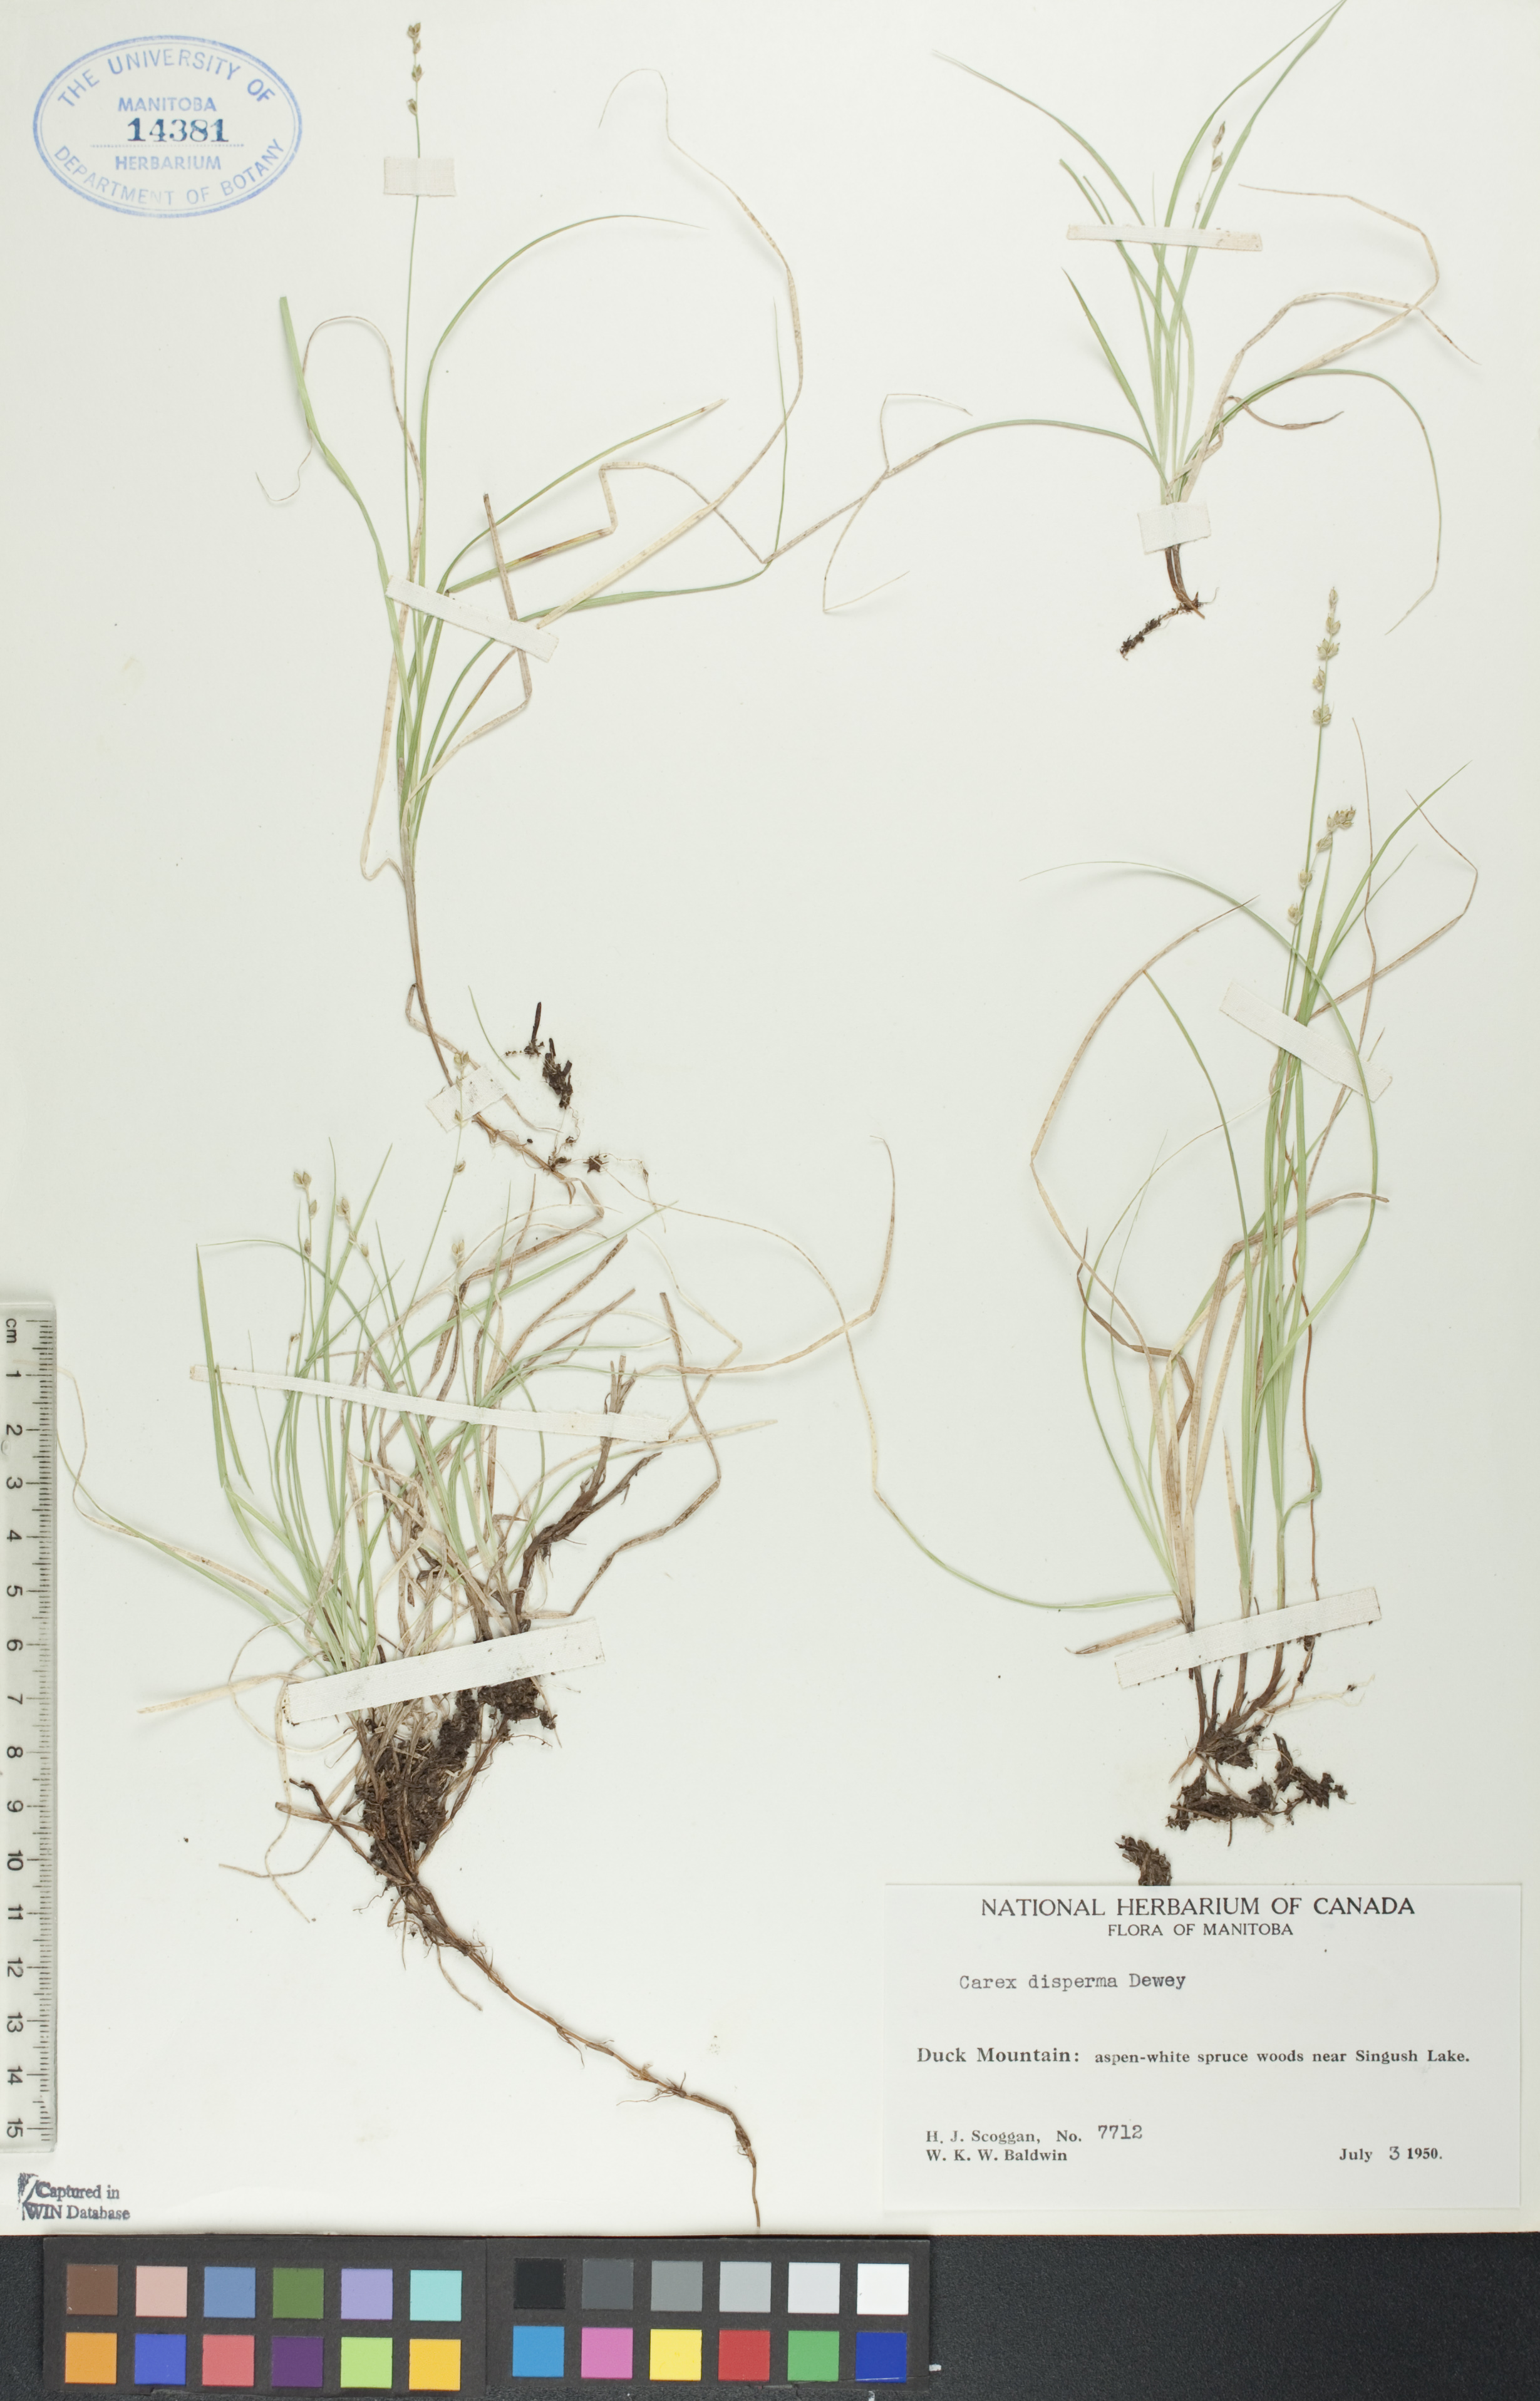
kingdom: Plantae
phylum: Tracheophyta
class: Liliopsida
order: Poales
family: Cyperaceae
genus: Carex
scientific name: Carex disperma
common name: Short-leaved sedge
